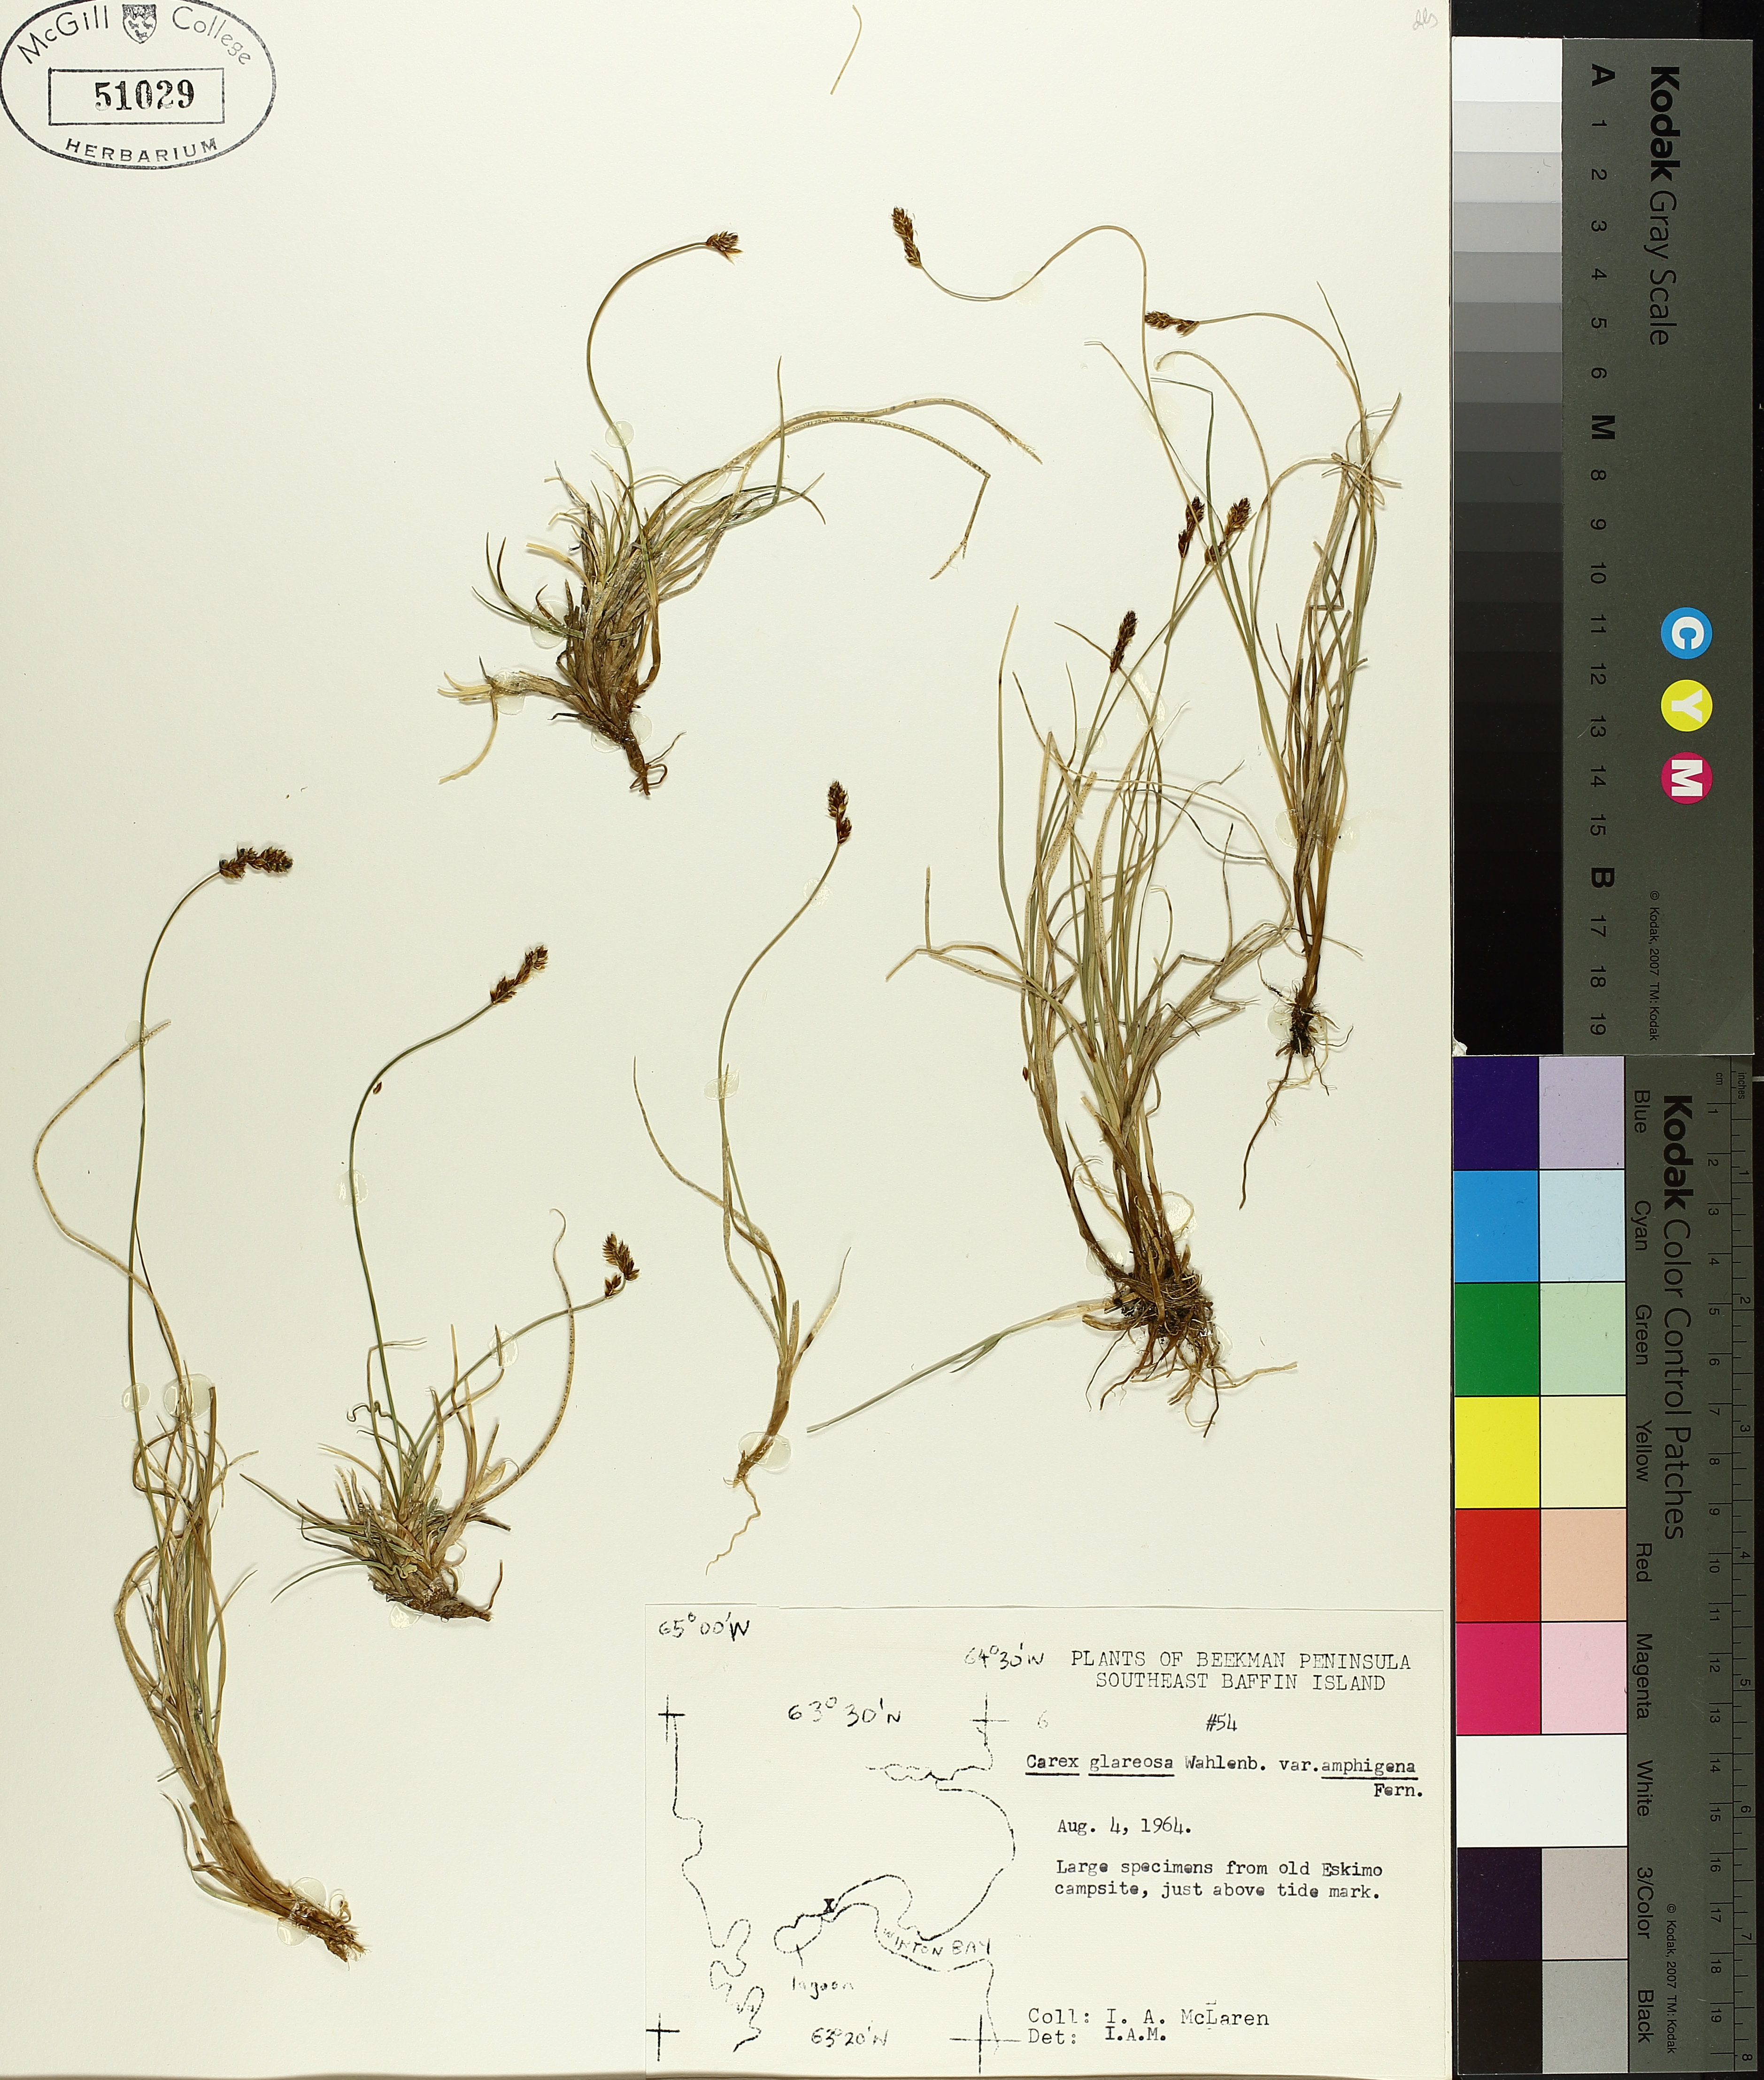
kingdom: Plantae
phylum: Tracheophyta
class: Liliopsida
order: Poales
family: Cyperaceae
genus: Carex
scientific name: Carex glareosa
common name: Clustered sedge
